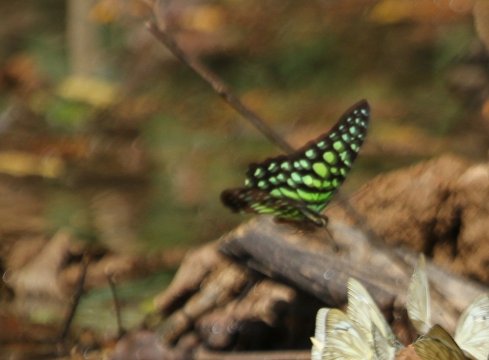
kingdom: Animalia
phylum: Arthropoda
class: Insecta
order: Lepidoptera
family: Papilionidae
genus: Graphium
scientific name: Graphium agamemnon
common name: Tailed Jay
